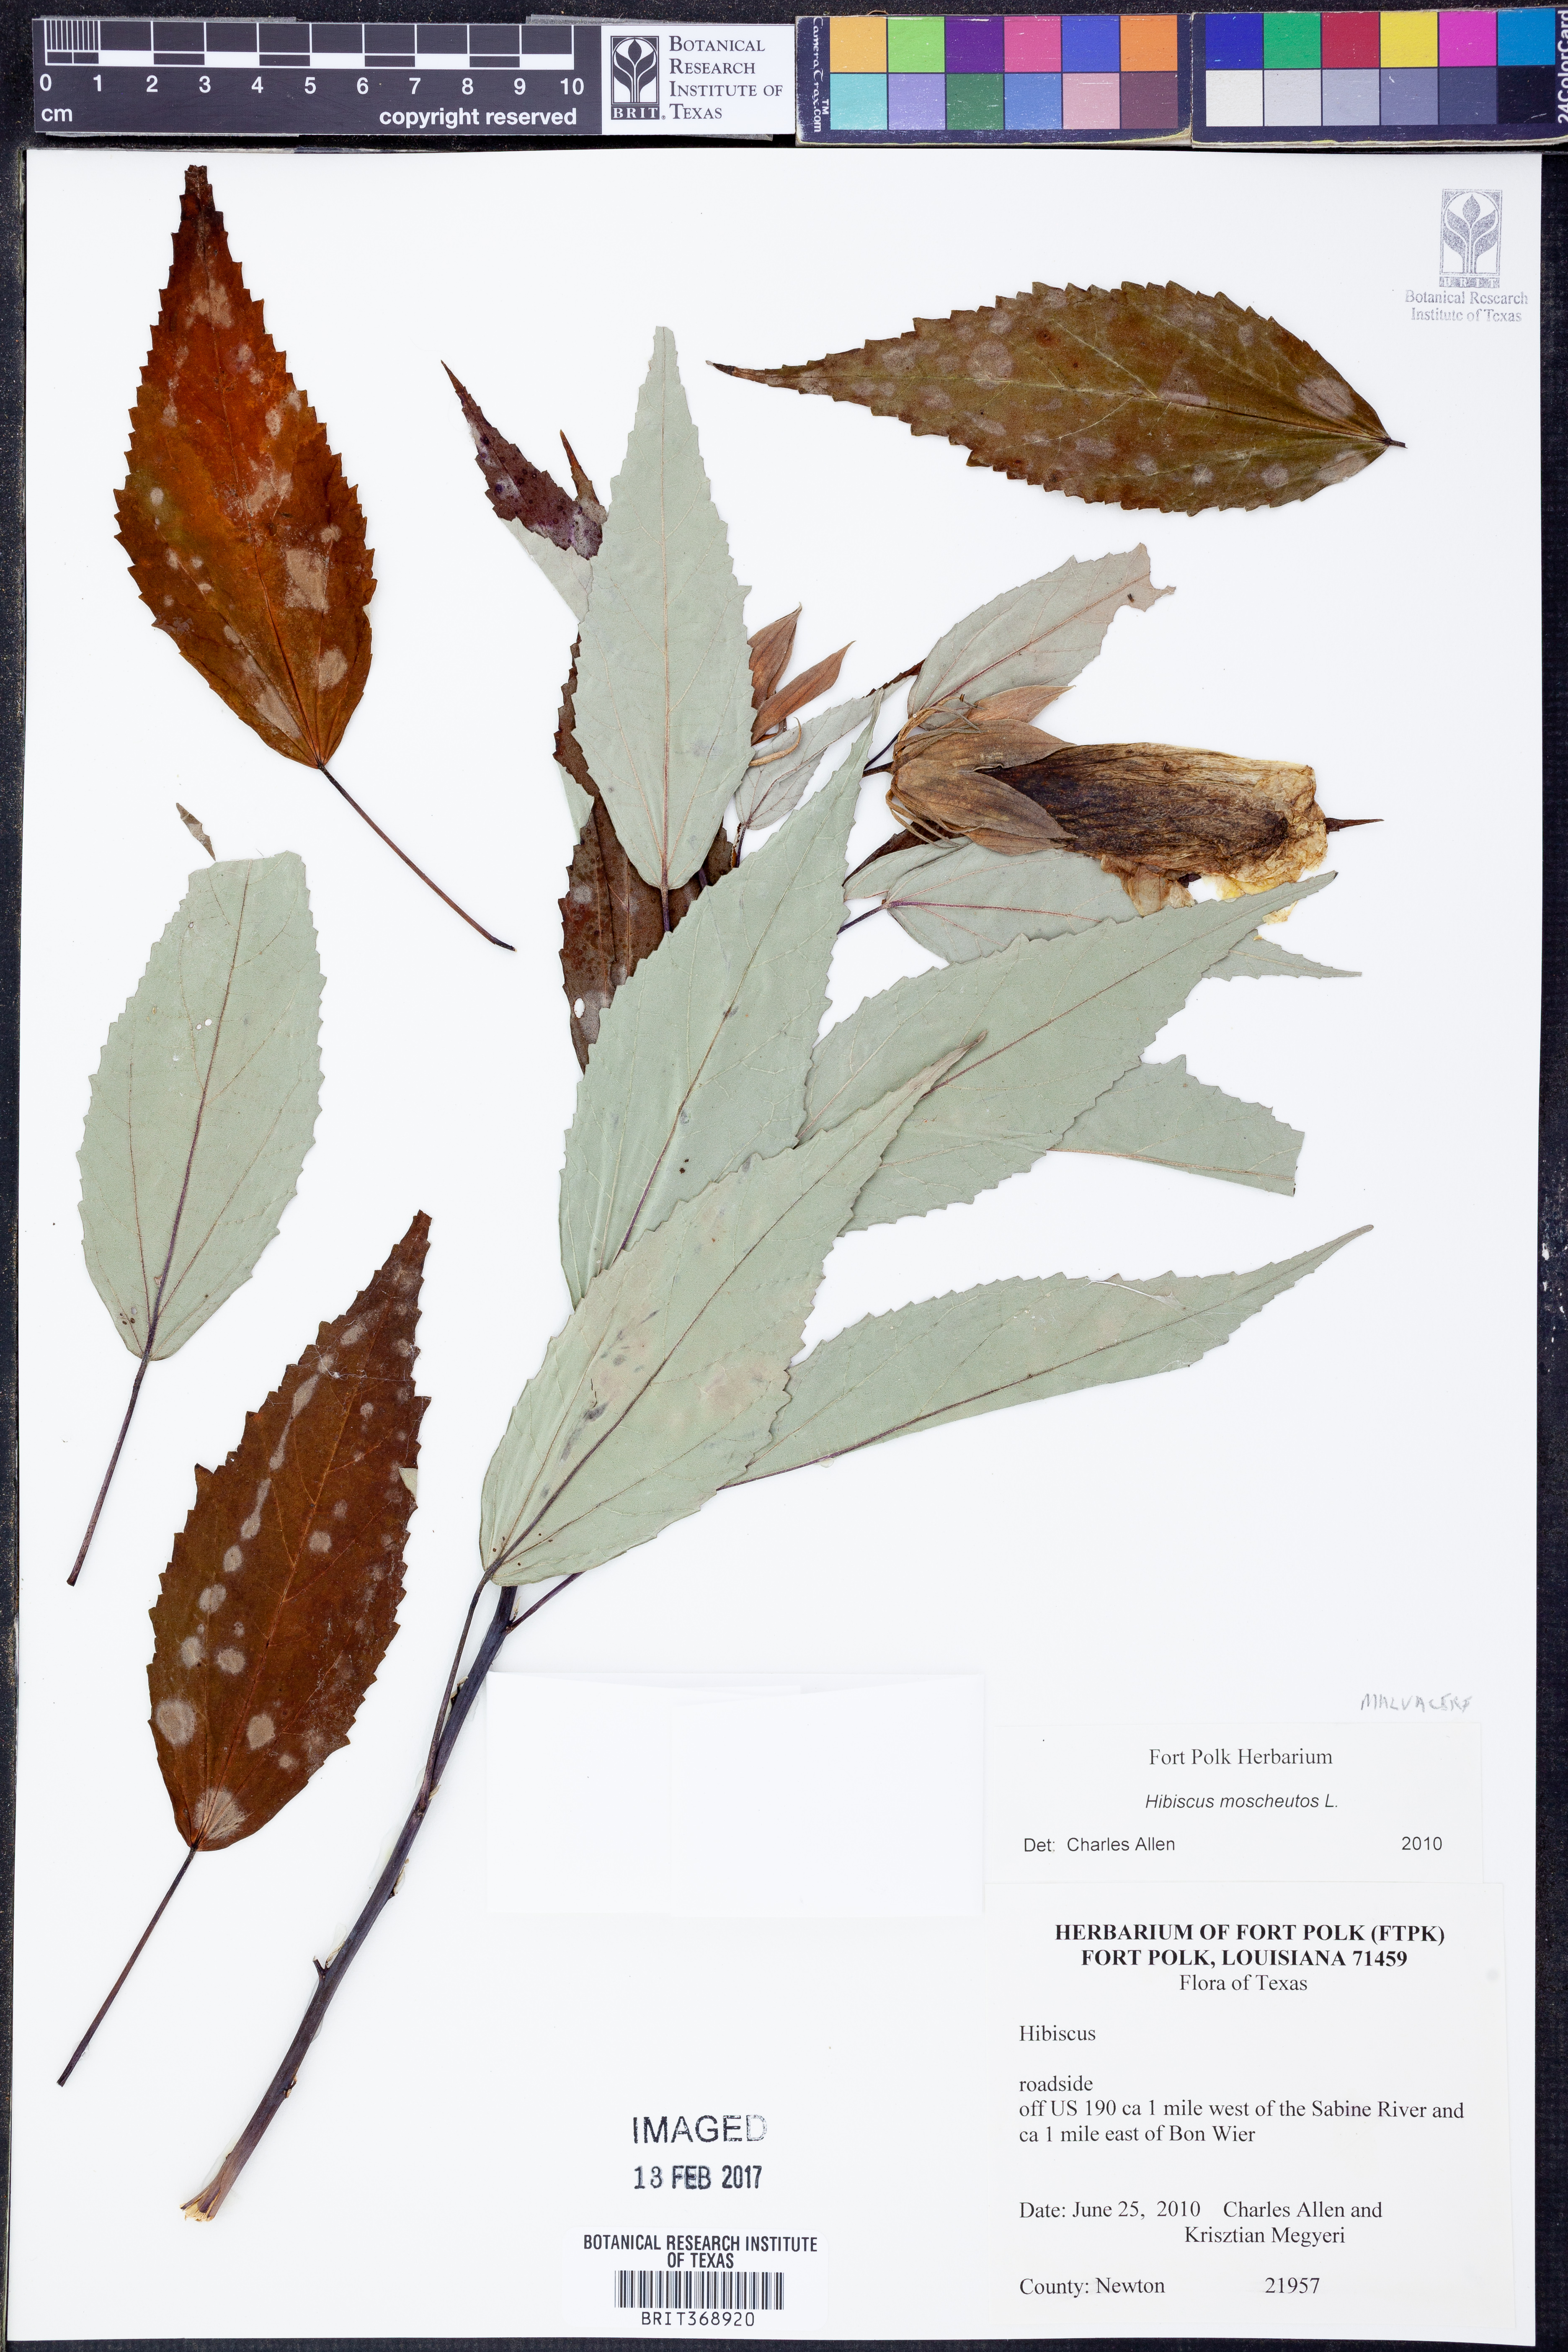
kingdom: Plantae
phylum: Tracheophyta
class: Magnoliopsida
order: Malvales
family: Malvaceae
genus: Hibiscus
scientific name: Hibiscus moscheutos
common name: Common rose-mallow
